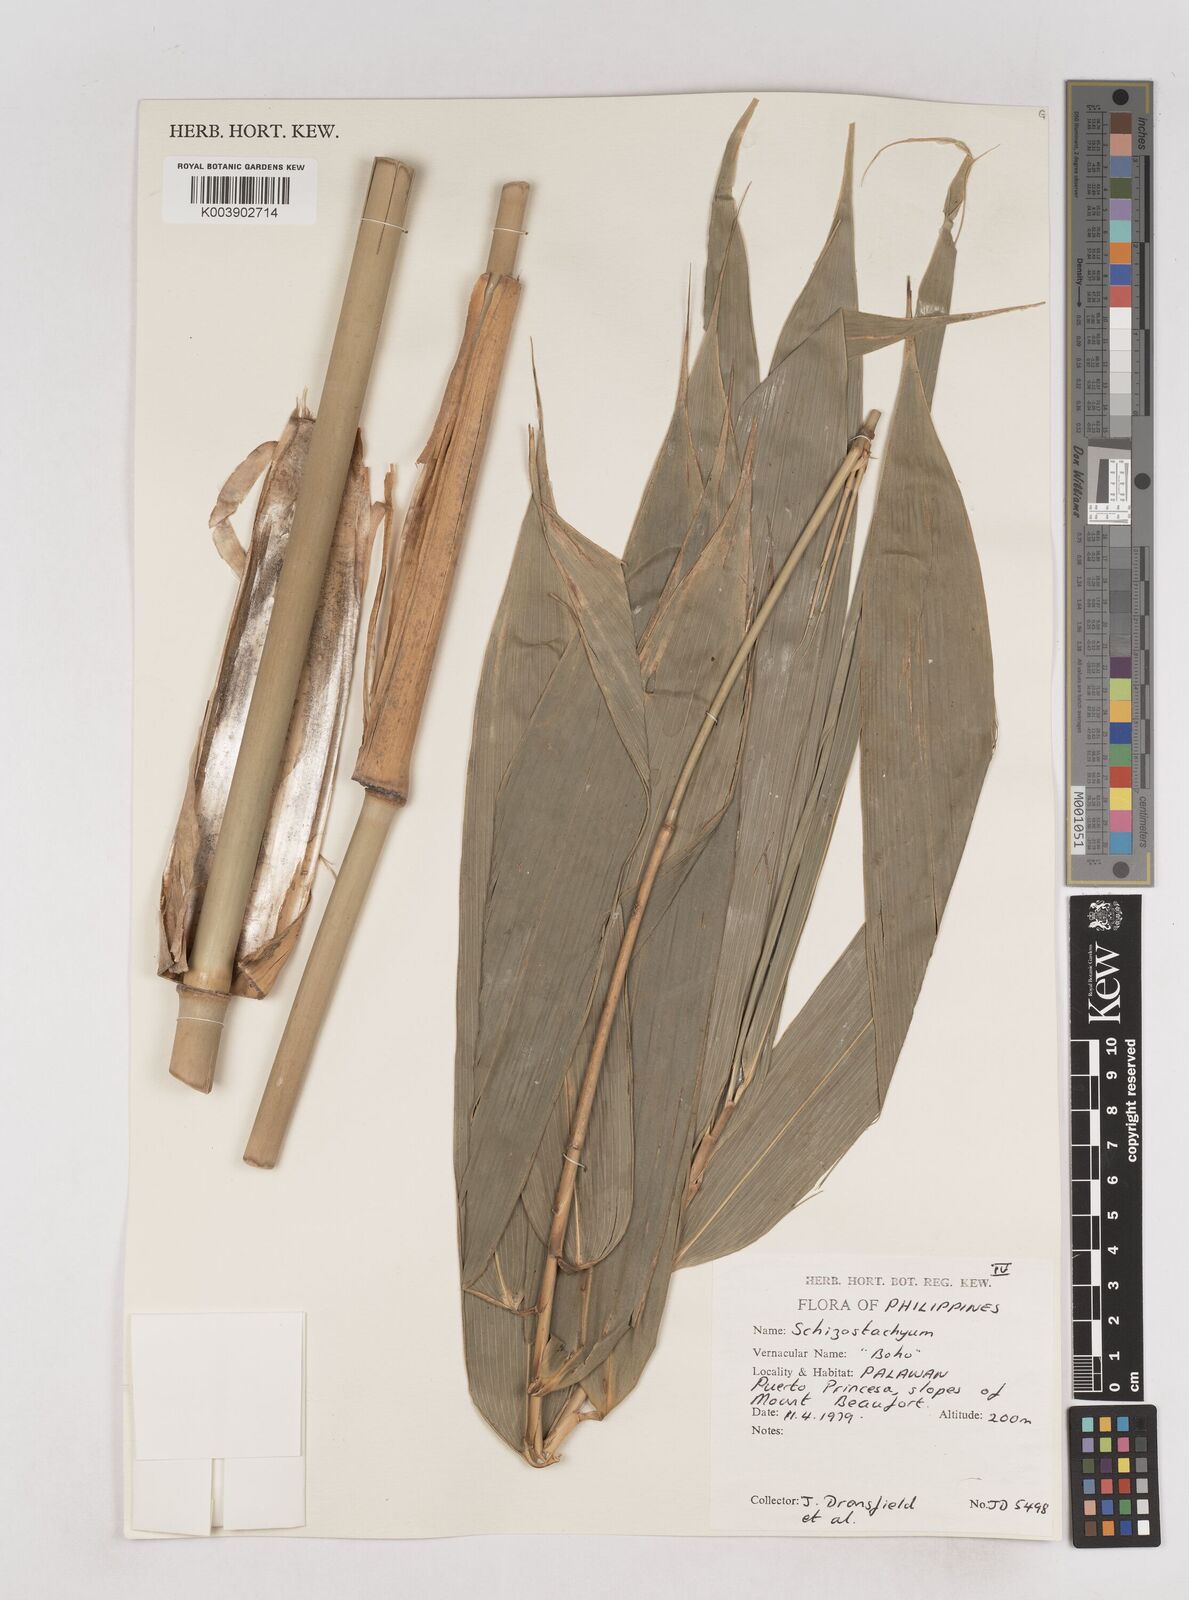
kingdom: Plantae
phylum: Tracheophyta
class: Liliopsida
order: Poales
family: Poaceae
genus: Schizostachyum
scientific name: Schizostachyum
